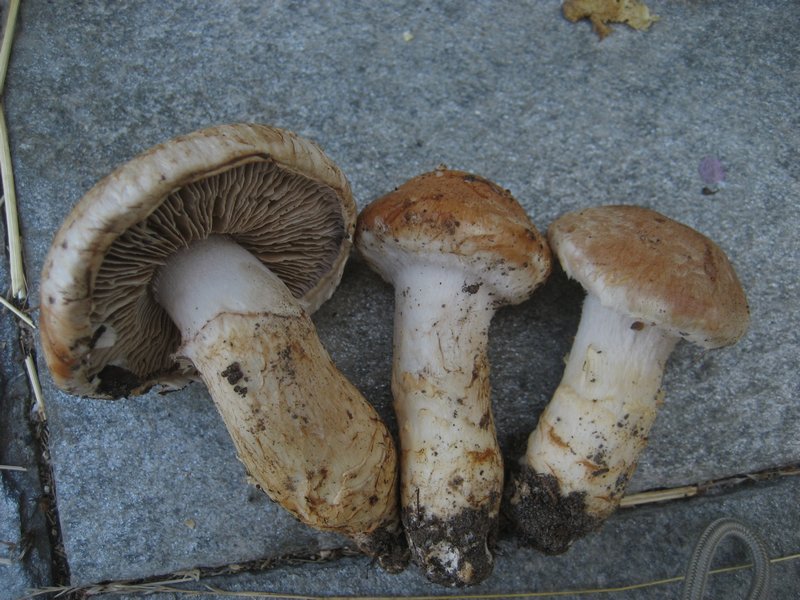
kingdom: Fungi
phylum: Basidiomycota
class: Agaricomycetes
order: Agaricales
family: Cortinariaceae
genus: Phlegmacium
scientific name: Phlegmacium vulpinum
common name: ringbæltet slørhat
